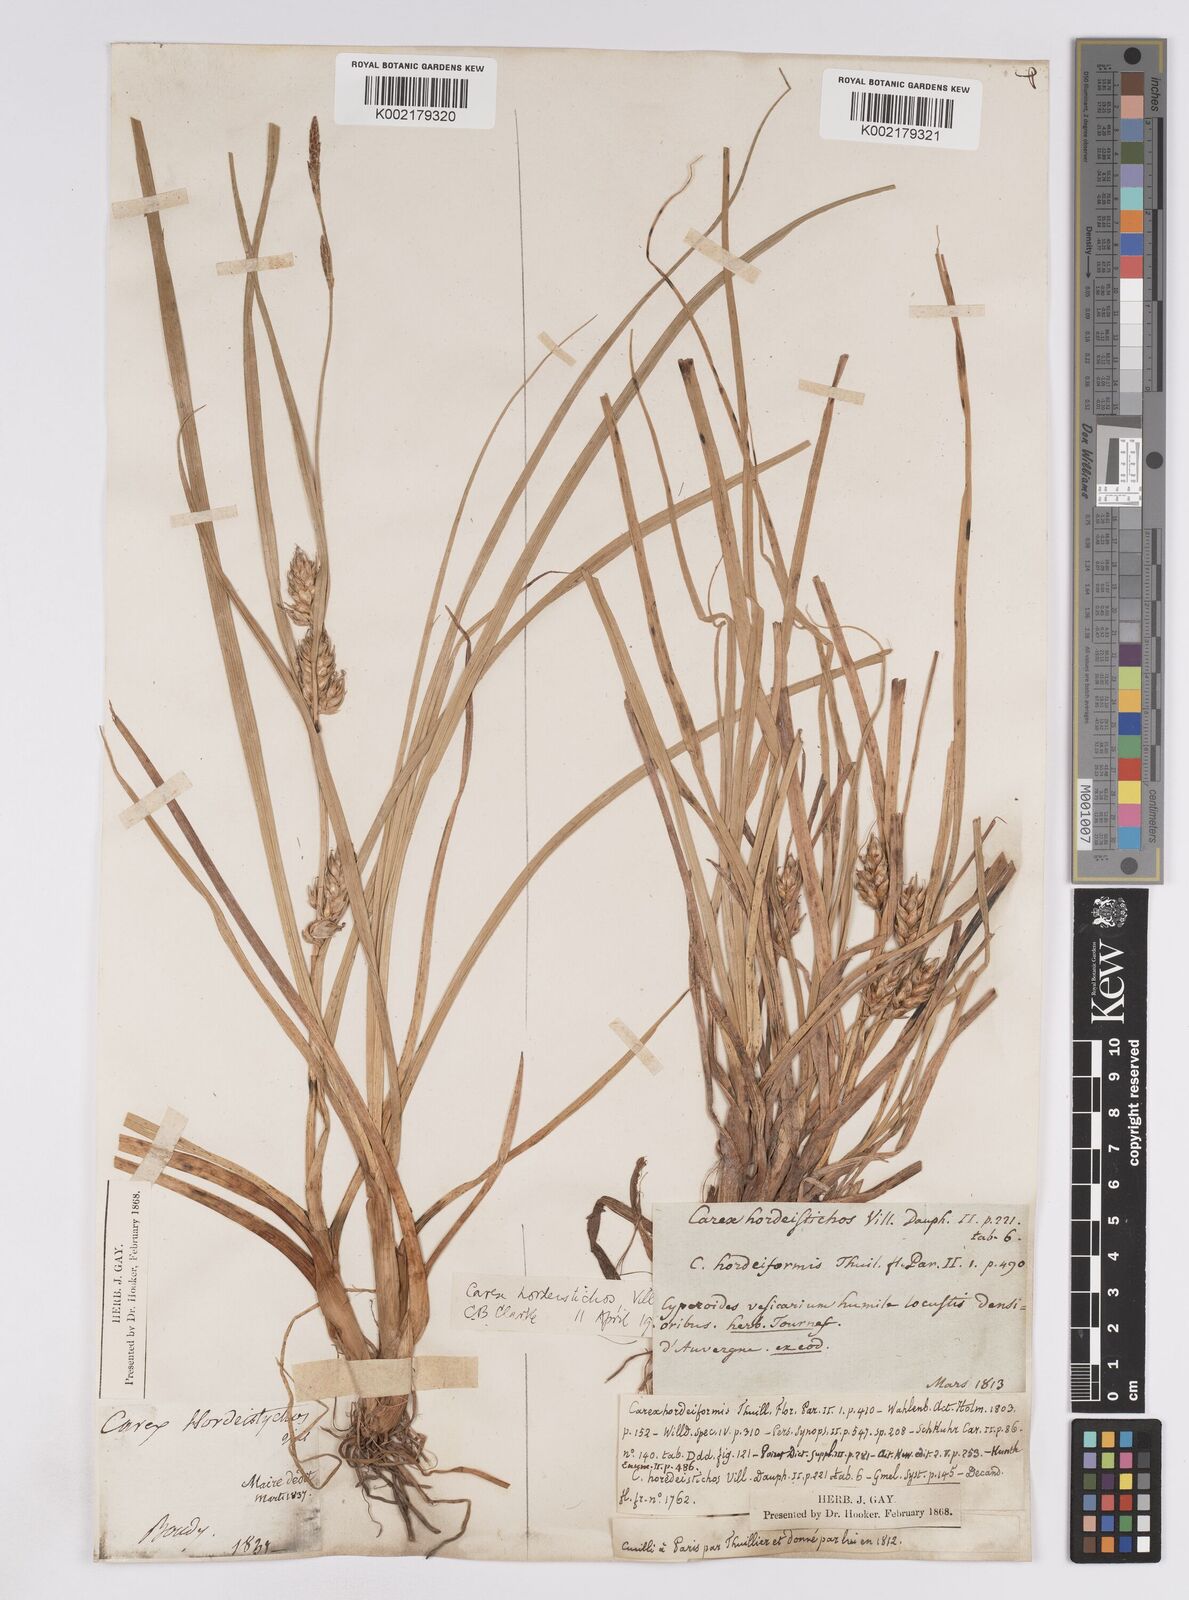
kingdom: Plantae
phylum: Tracheophyta
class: Liliopsida
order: Poales
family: Cyperaceae
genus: Carex
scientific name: Carex hordeistichos
